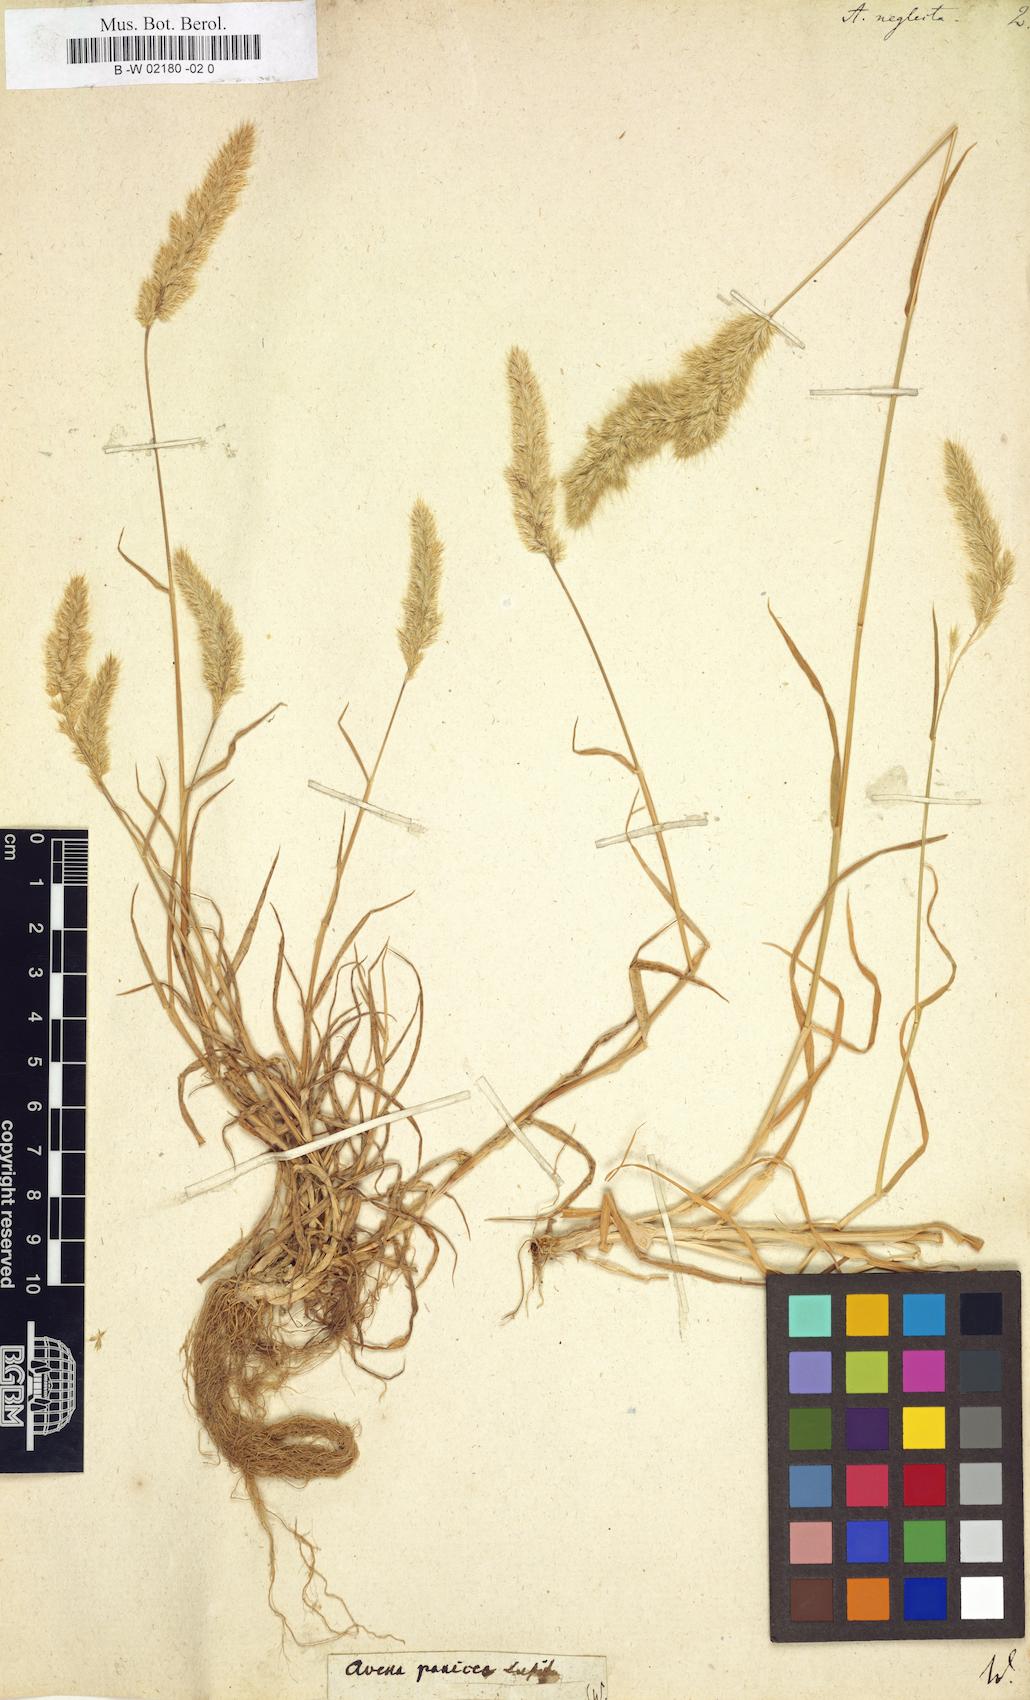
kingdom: Plantae
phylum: Tracheophyta
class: Liliopsida
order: Poales
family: Poaceae
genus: Trisetaria
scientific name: Trisetaria panicea
